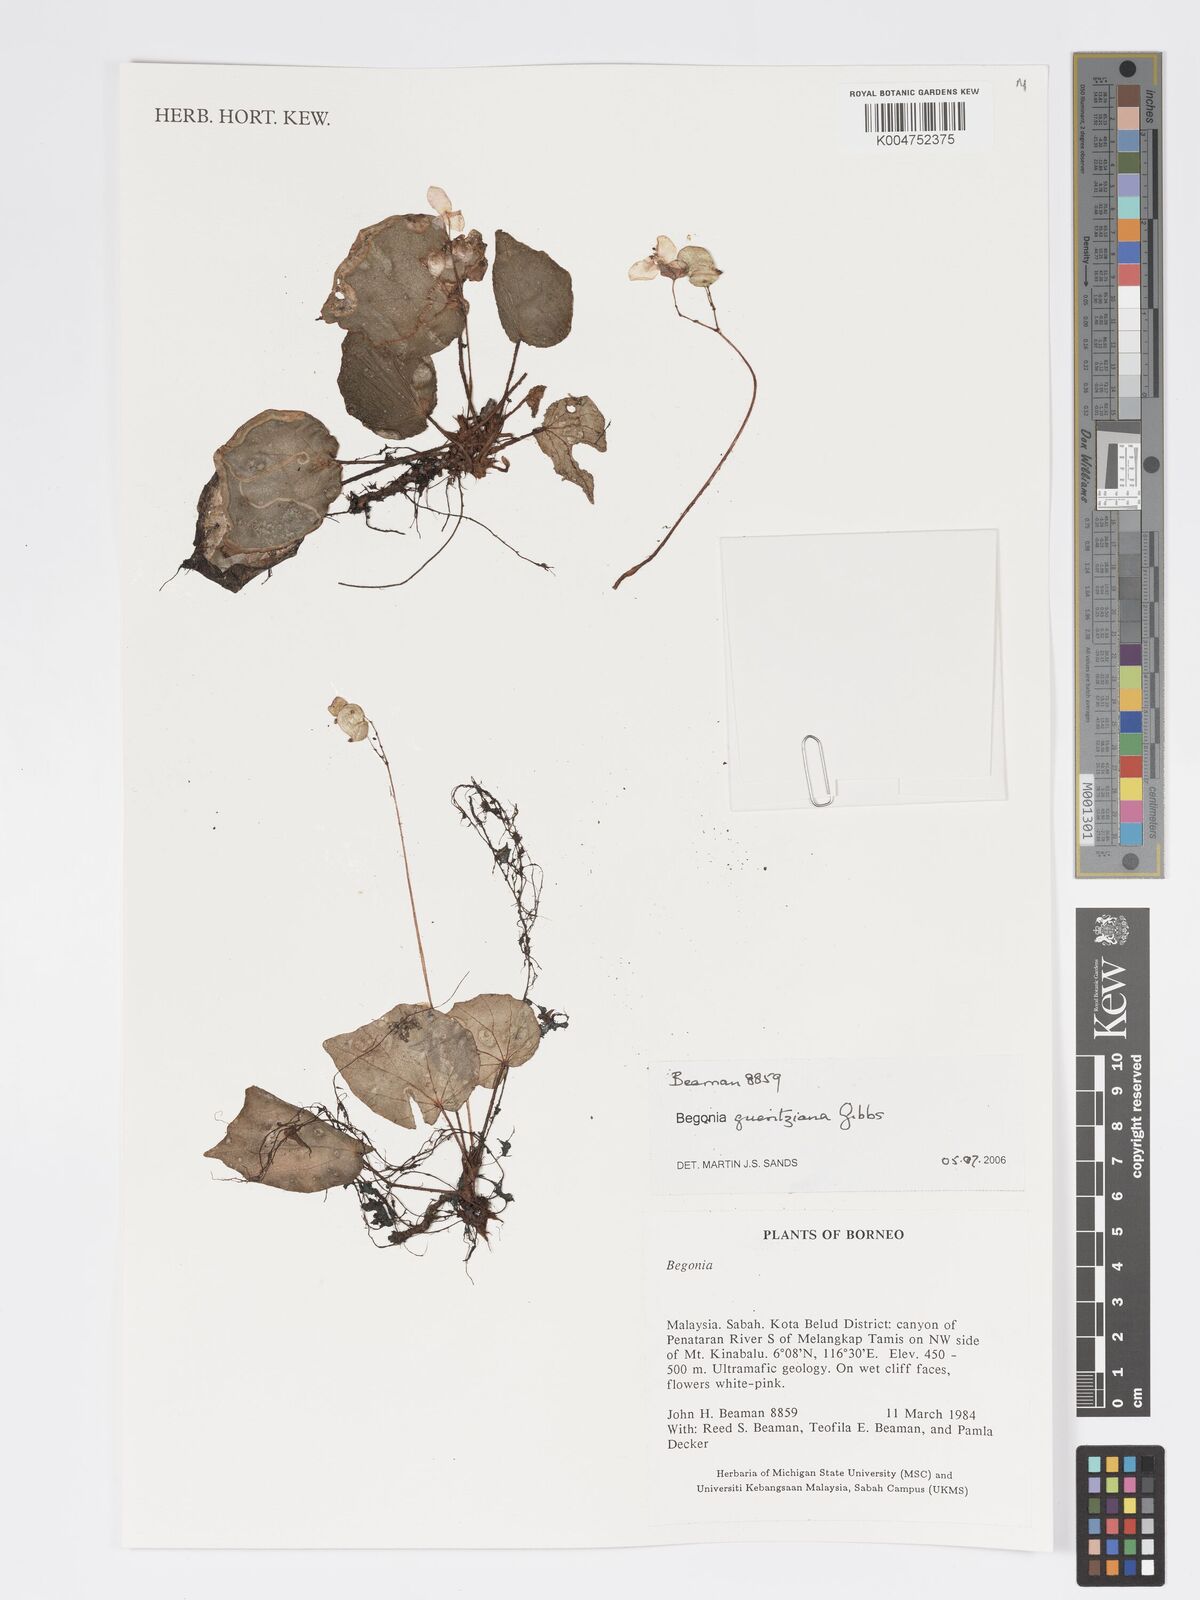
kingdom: Plantae
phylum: Tracheophyta
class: Magnoliopsida
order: Cucurbitales
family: Begoniaceae
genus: Begonia
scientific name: Begonia gueritziana
